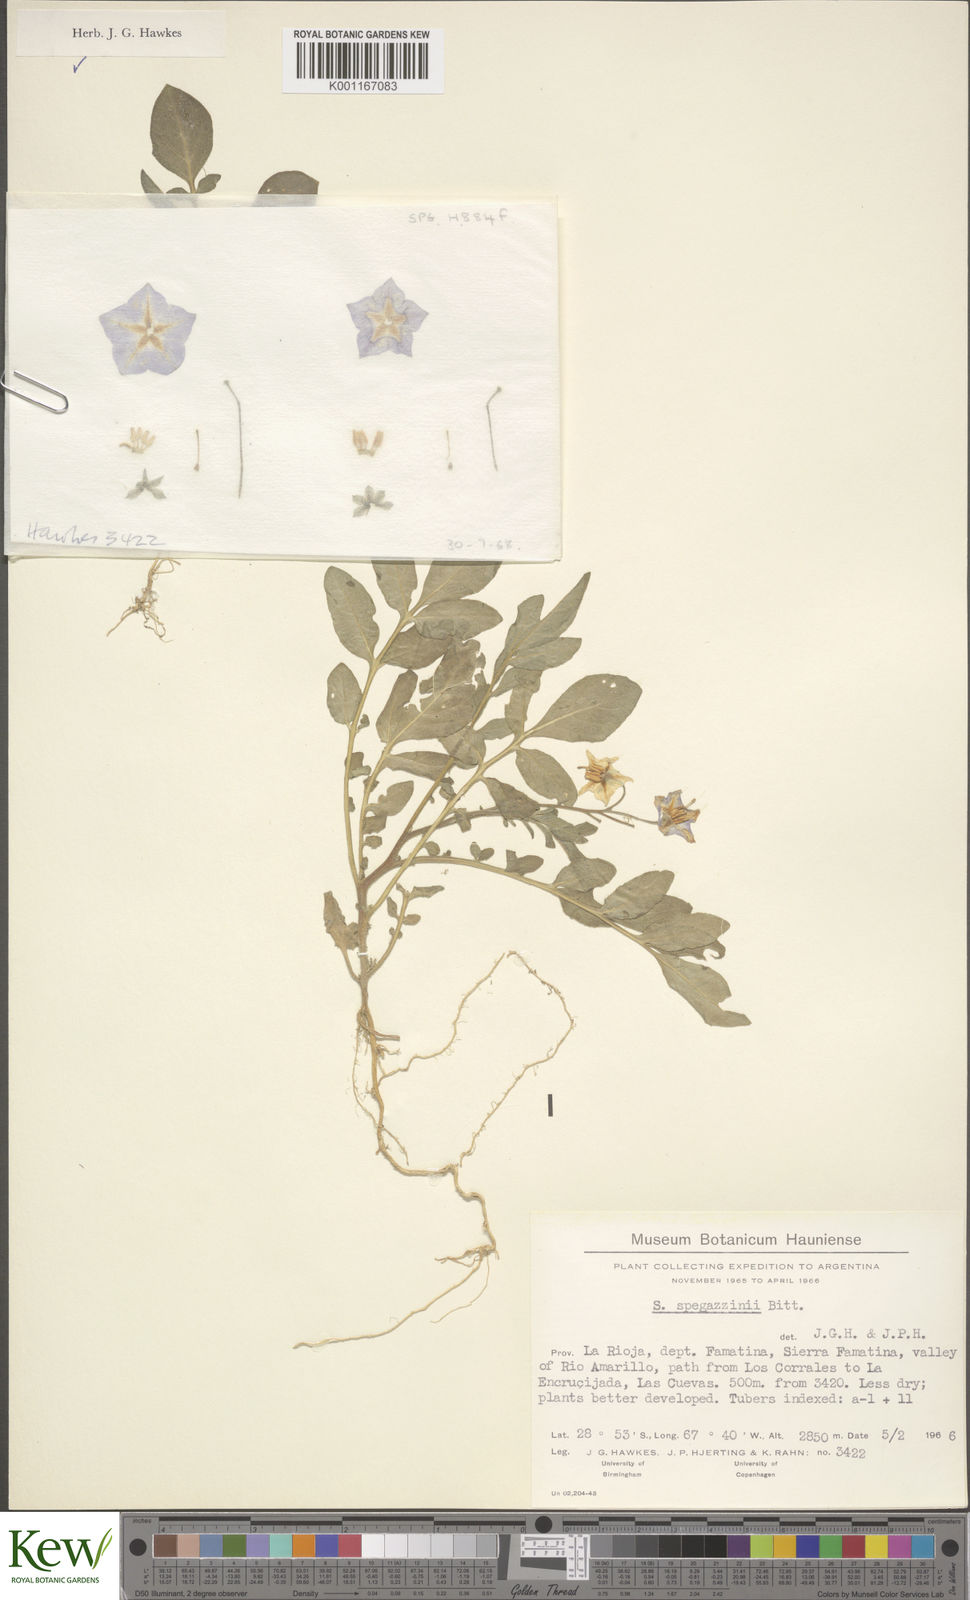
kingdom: Plantae
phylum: Tracheophyta
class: Magnoliopsida
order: Solanales
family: Solanaceae
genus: Solanum
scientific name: Solanum brevicaule
